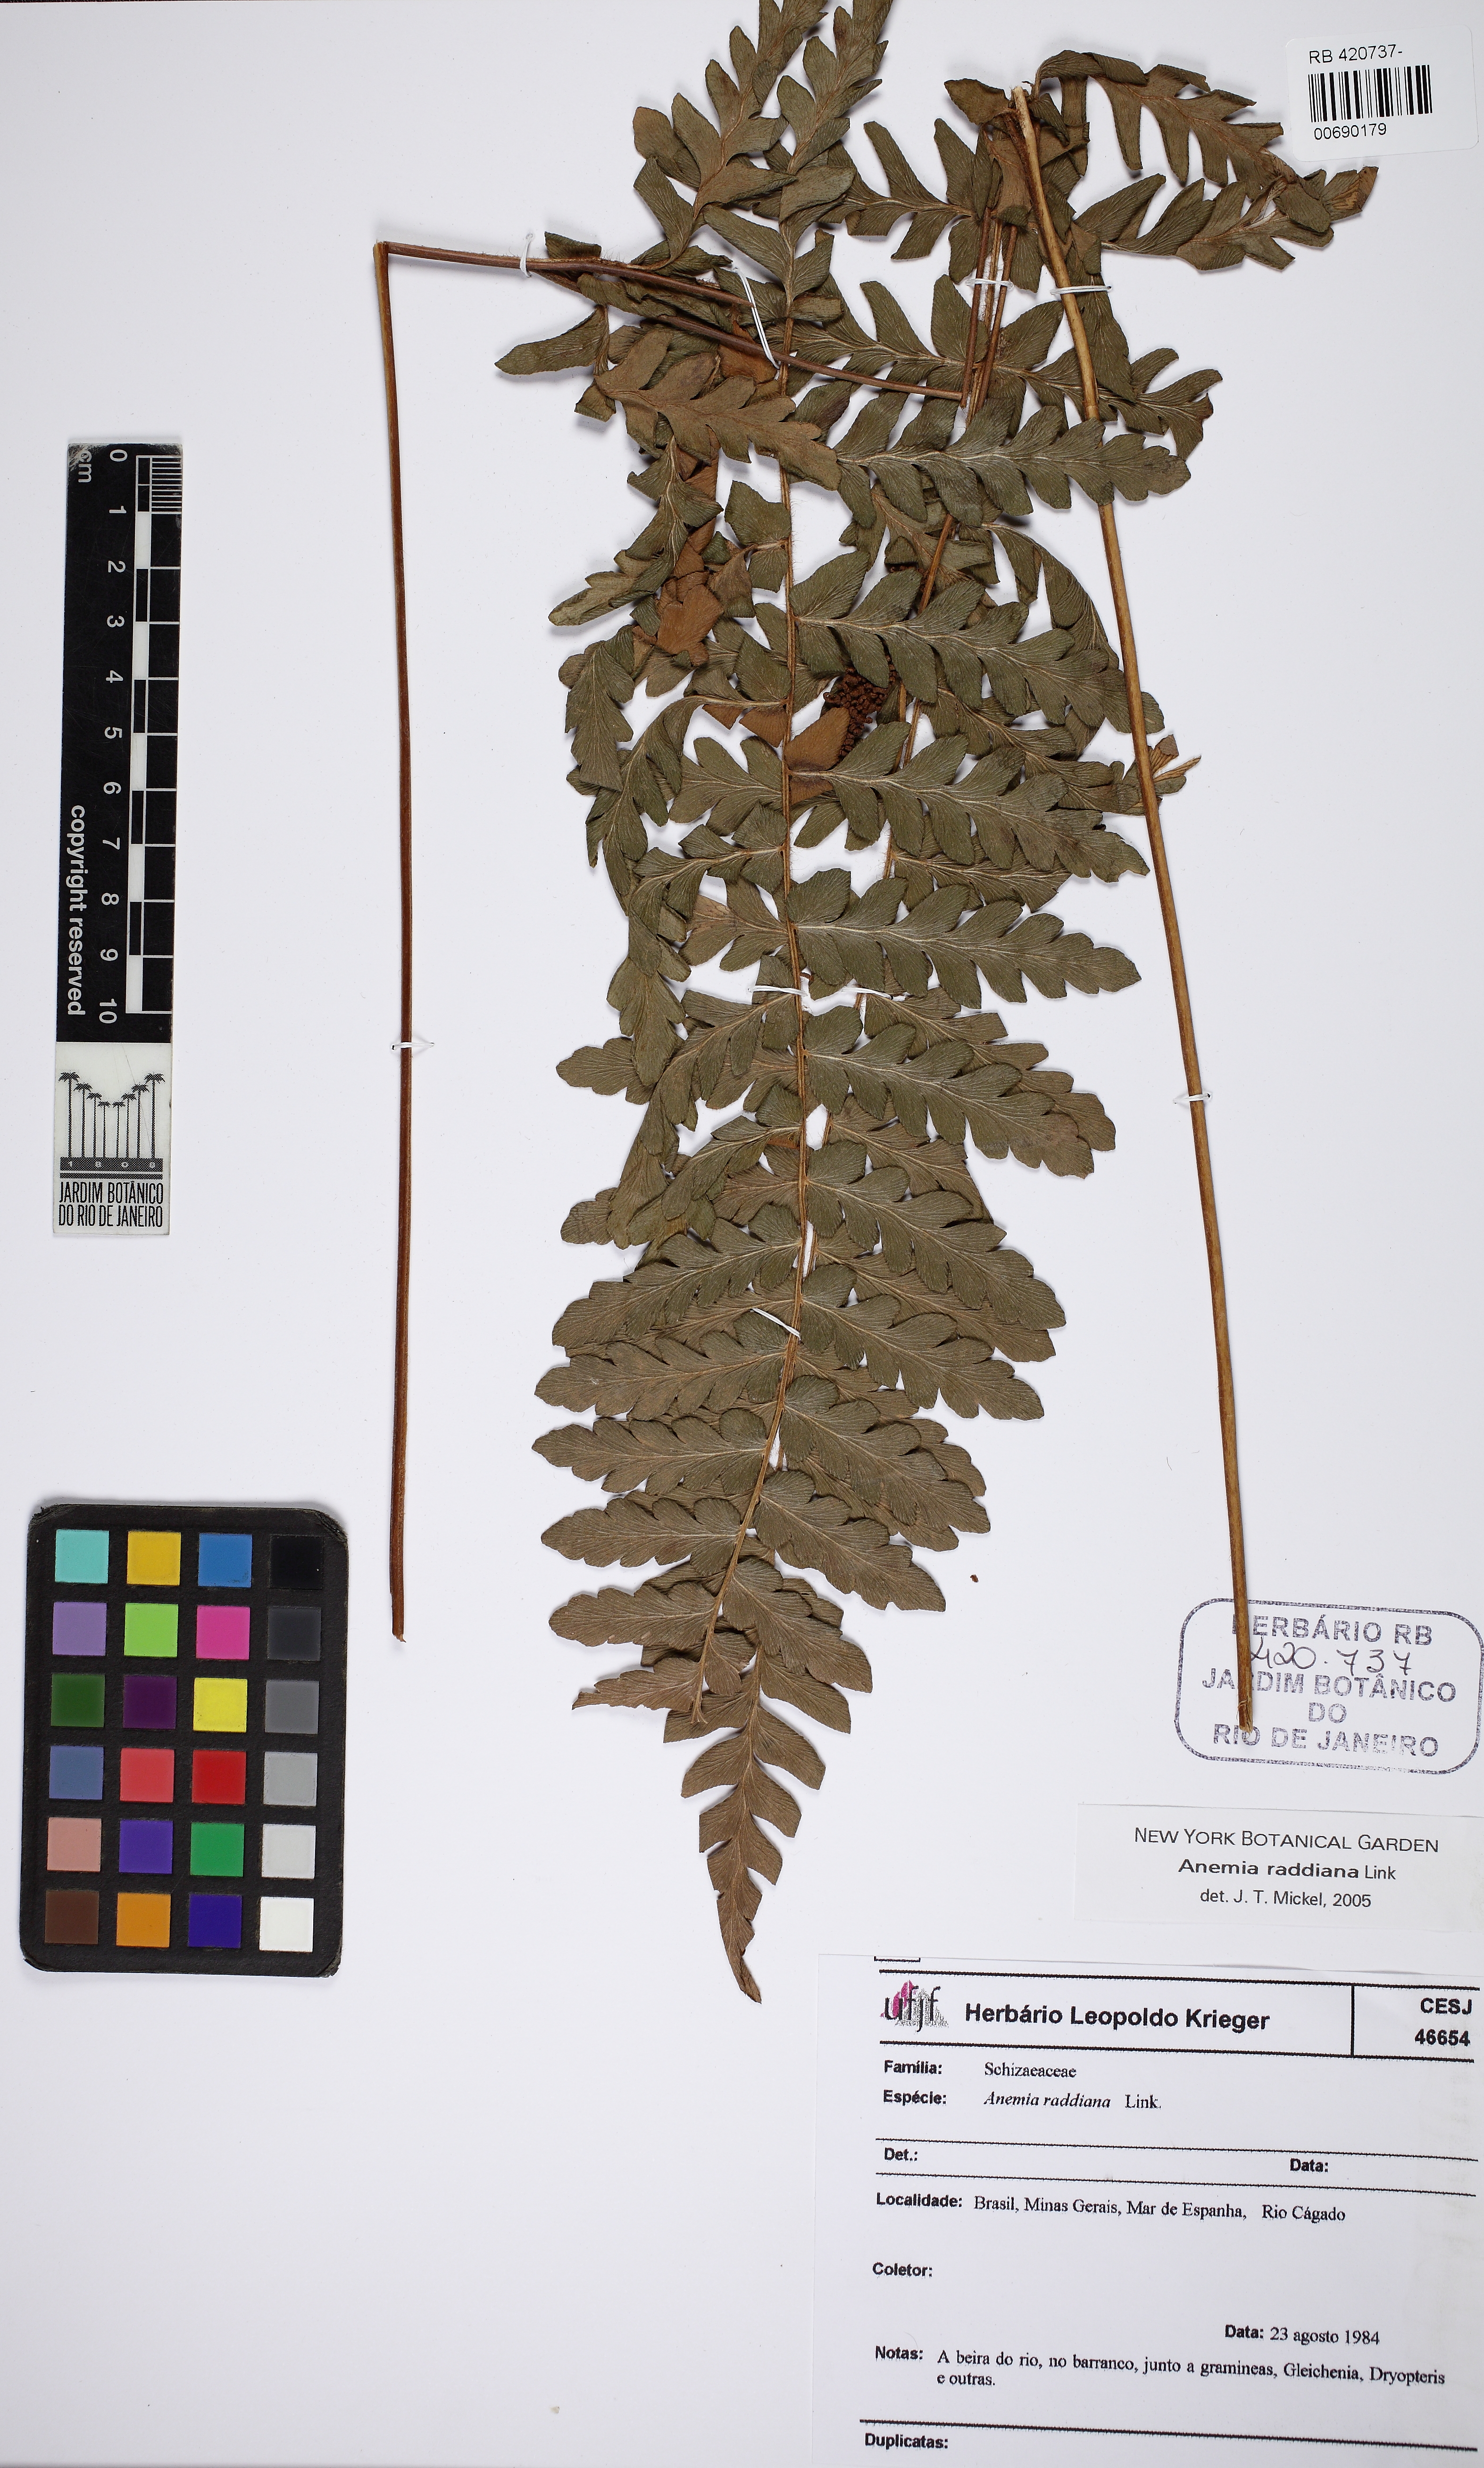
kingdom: Plantae
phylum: Tracheophyta
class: Polypodiopsida
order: Schizaeales
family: Anemiaceae
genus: Anemia
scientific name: Anemia raddiana
